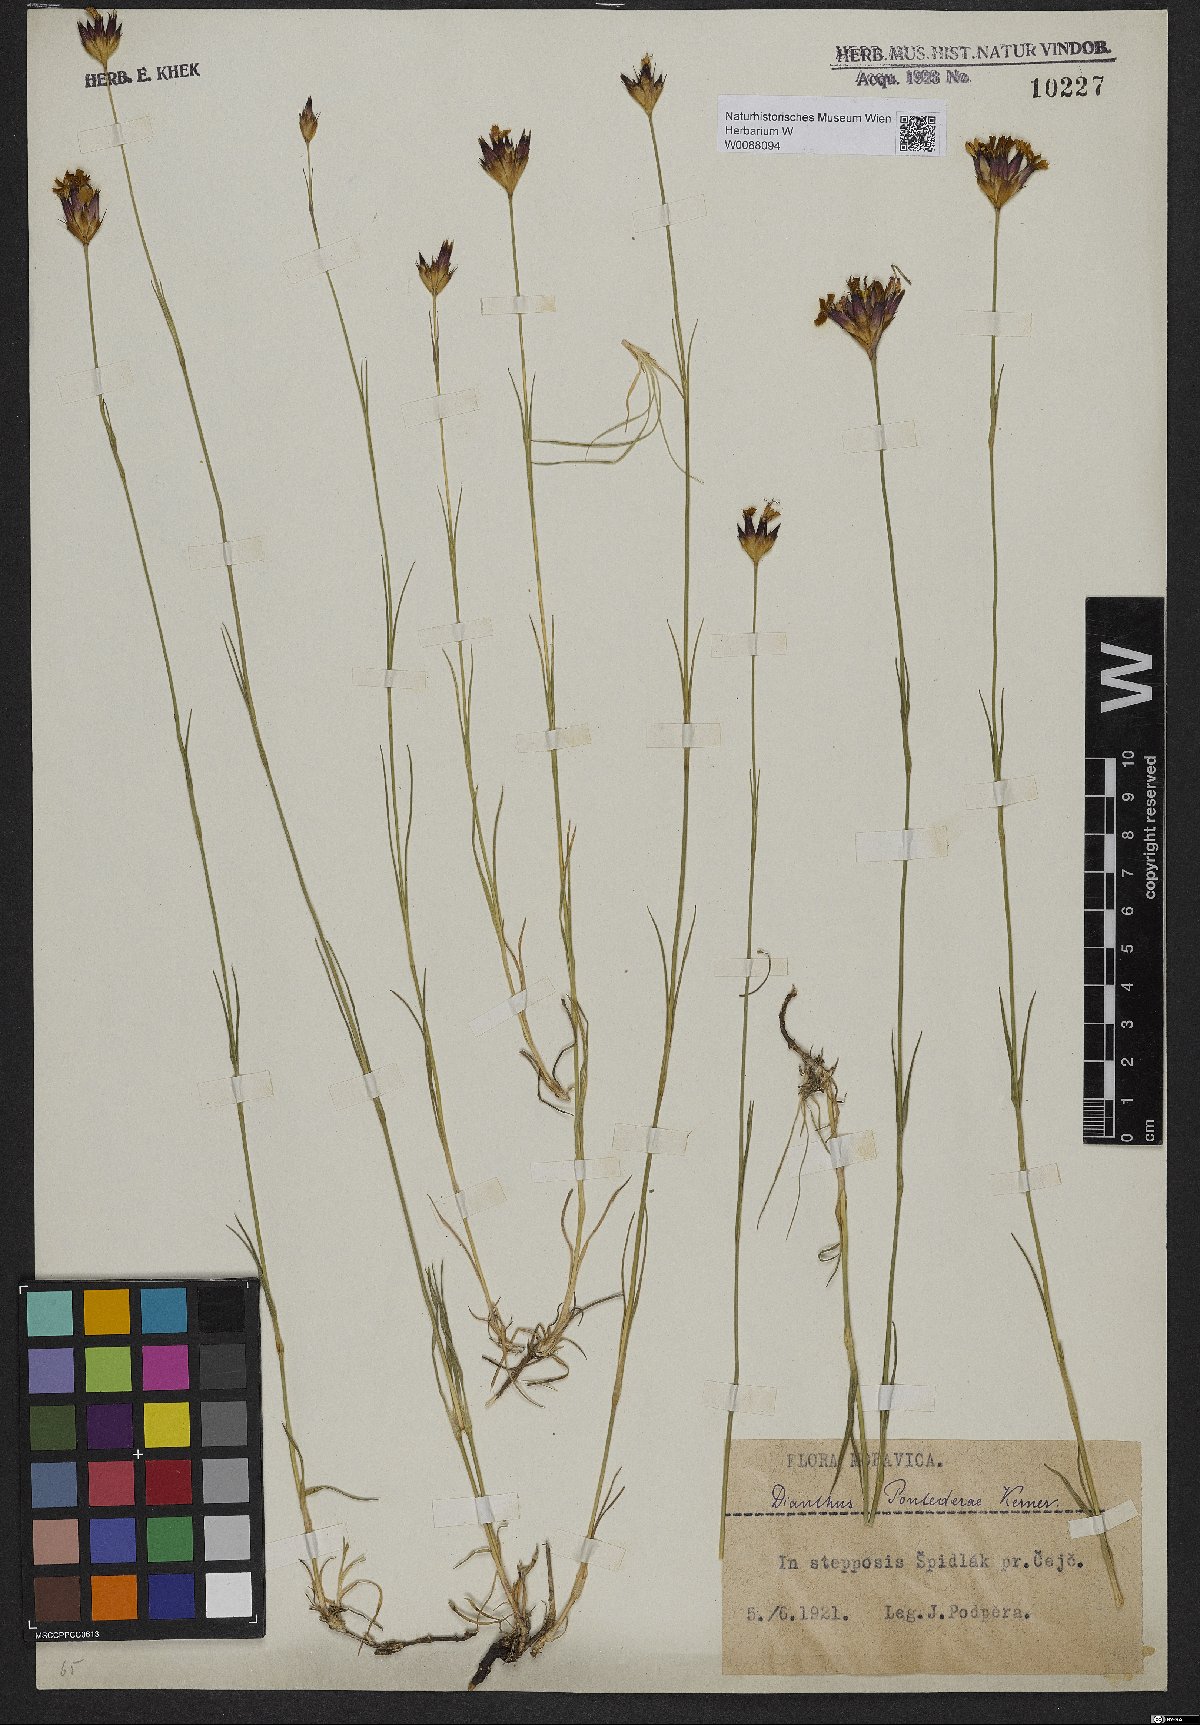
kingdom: Plantae
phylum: Tracheophyta
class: Magnoliopsida
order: Caryophyllales
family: Caryophyllaceae
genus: Dianthus
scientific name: Dianthus pontederae
